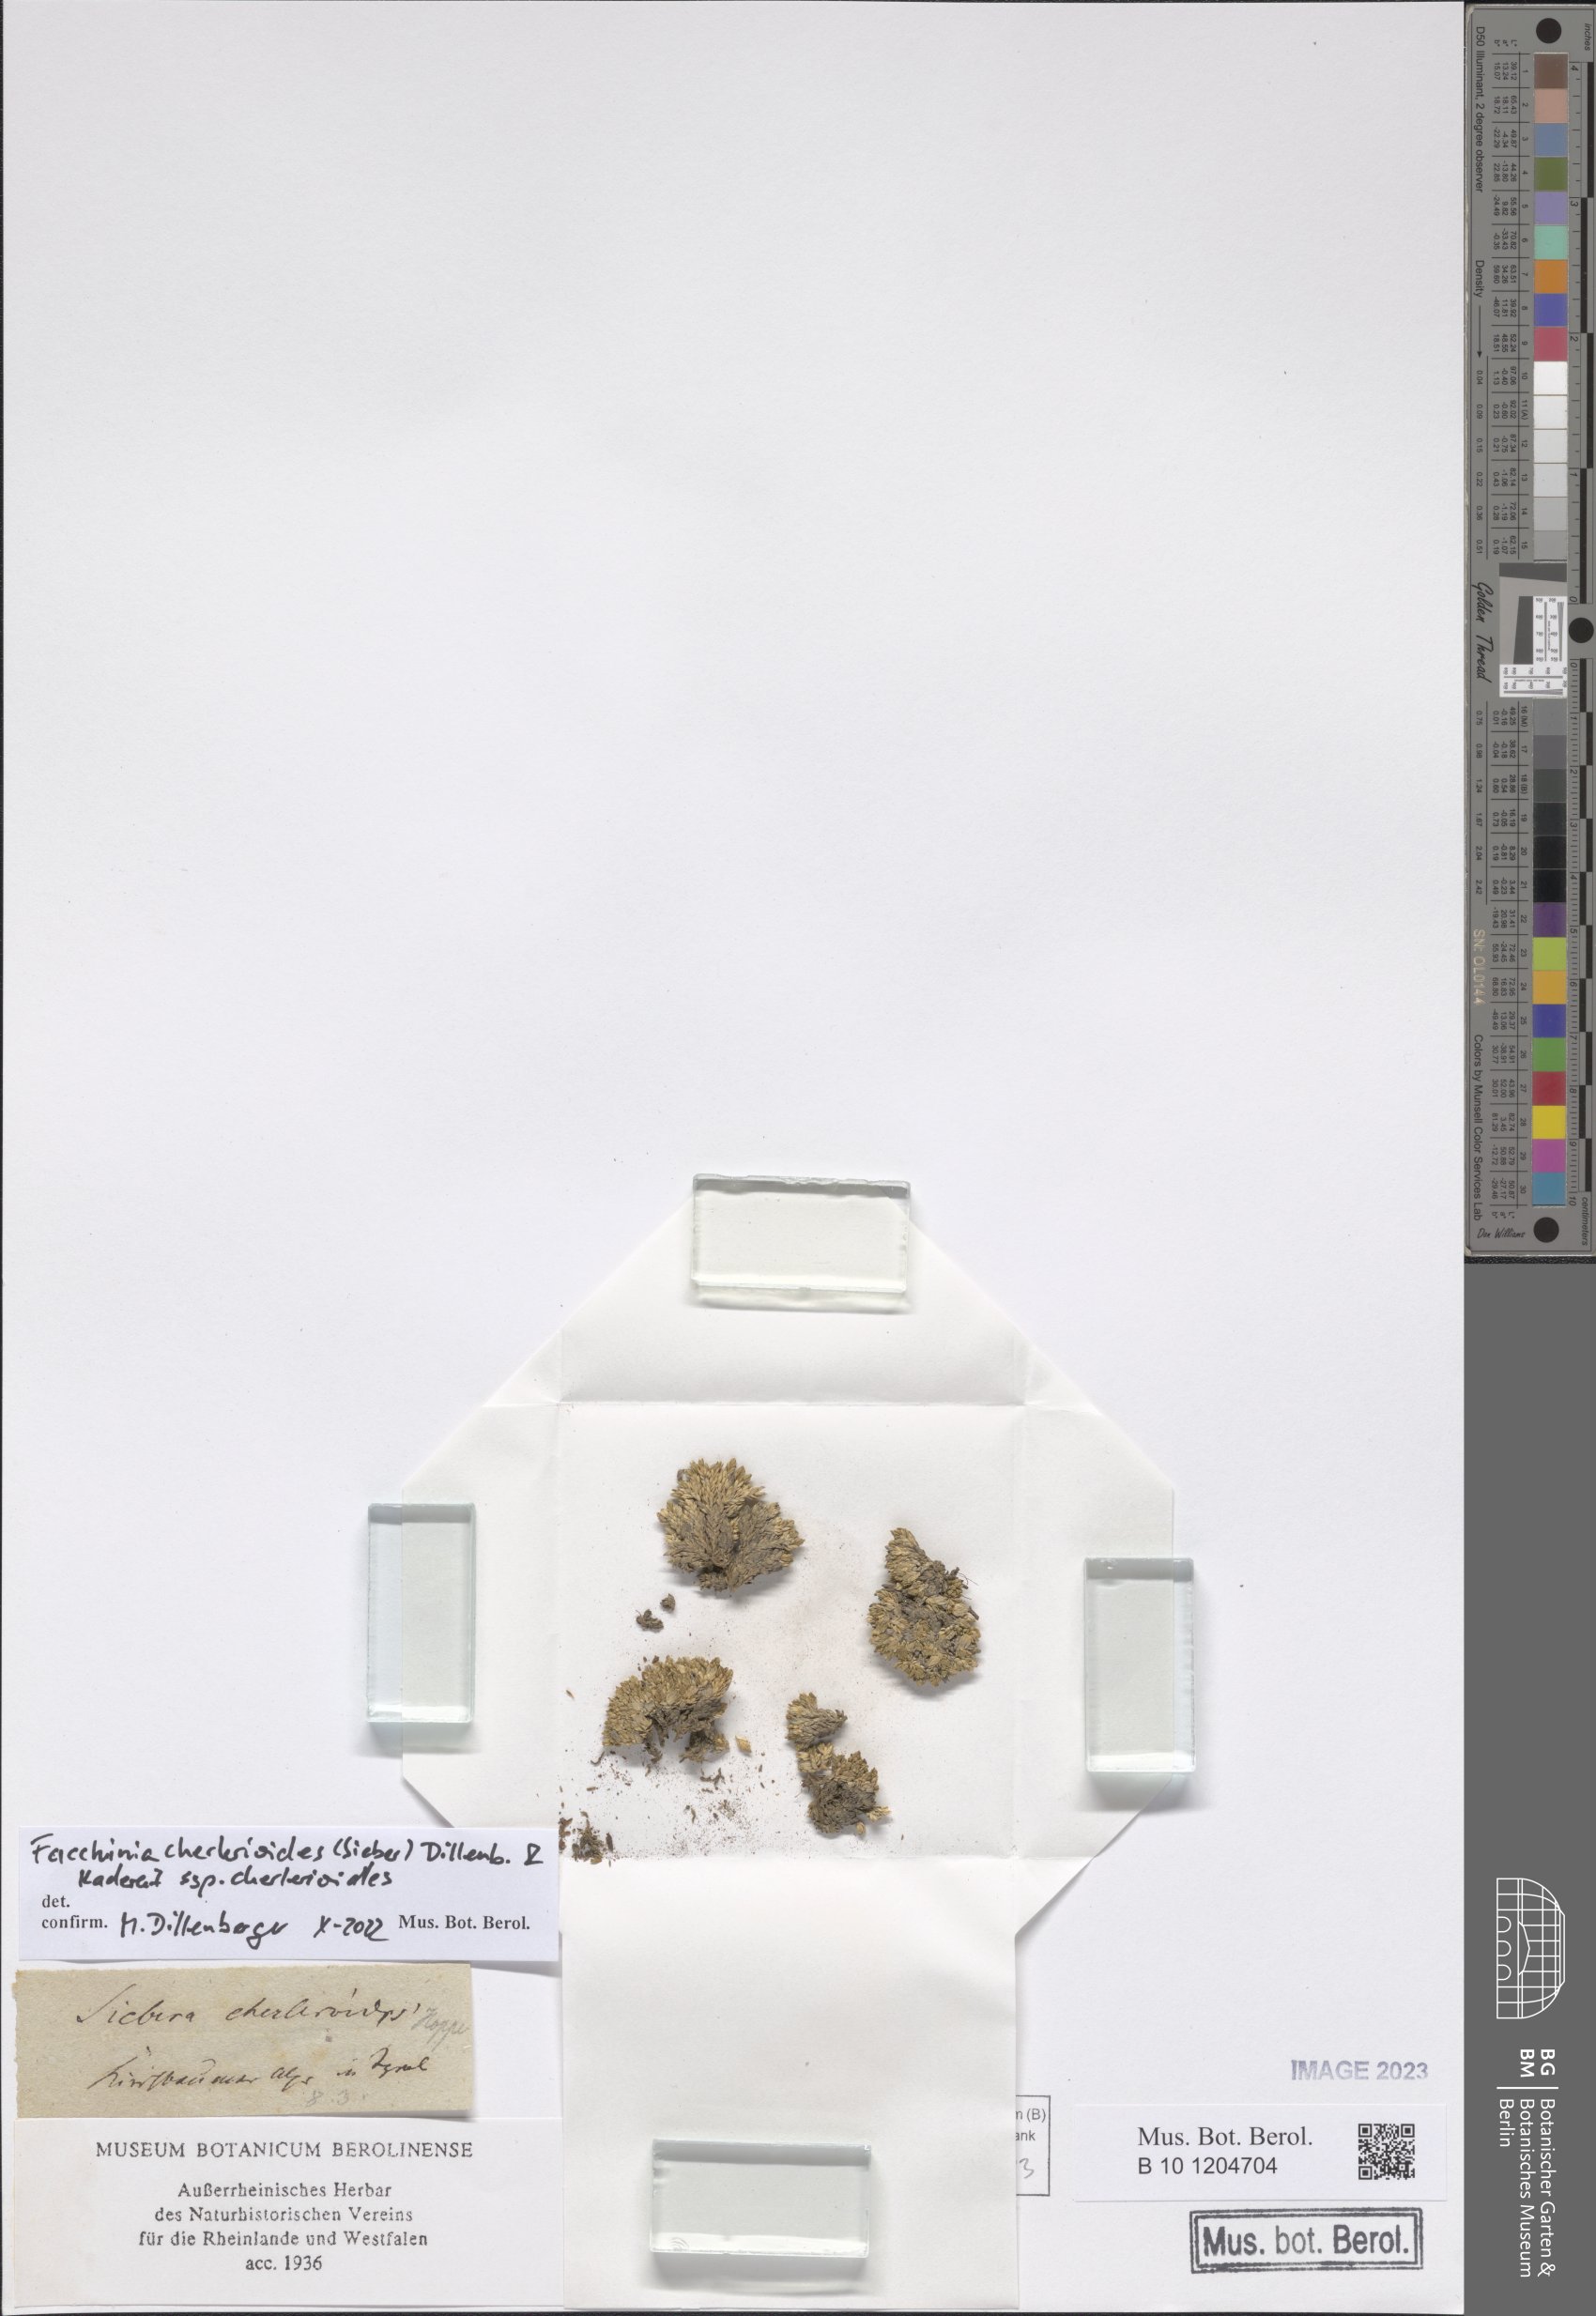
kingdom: Plantae
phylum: Tracheophyta
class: Magnoliopsida
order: Caryophyllales
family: Caryophyllaceae
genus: Facchinia
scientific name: Facchinia cherlerioides
